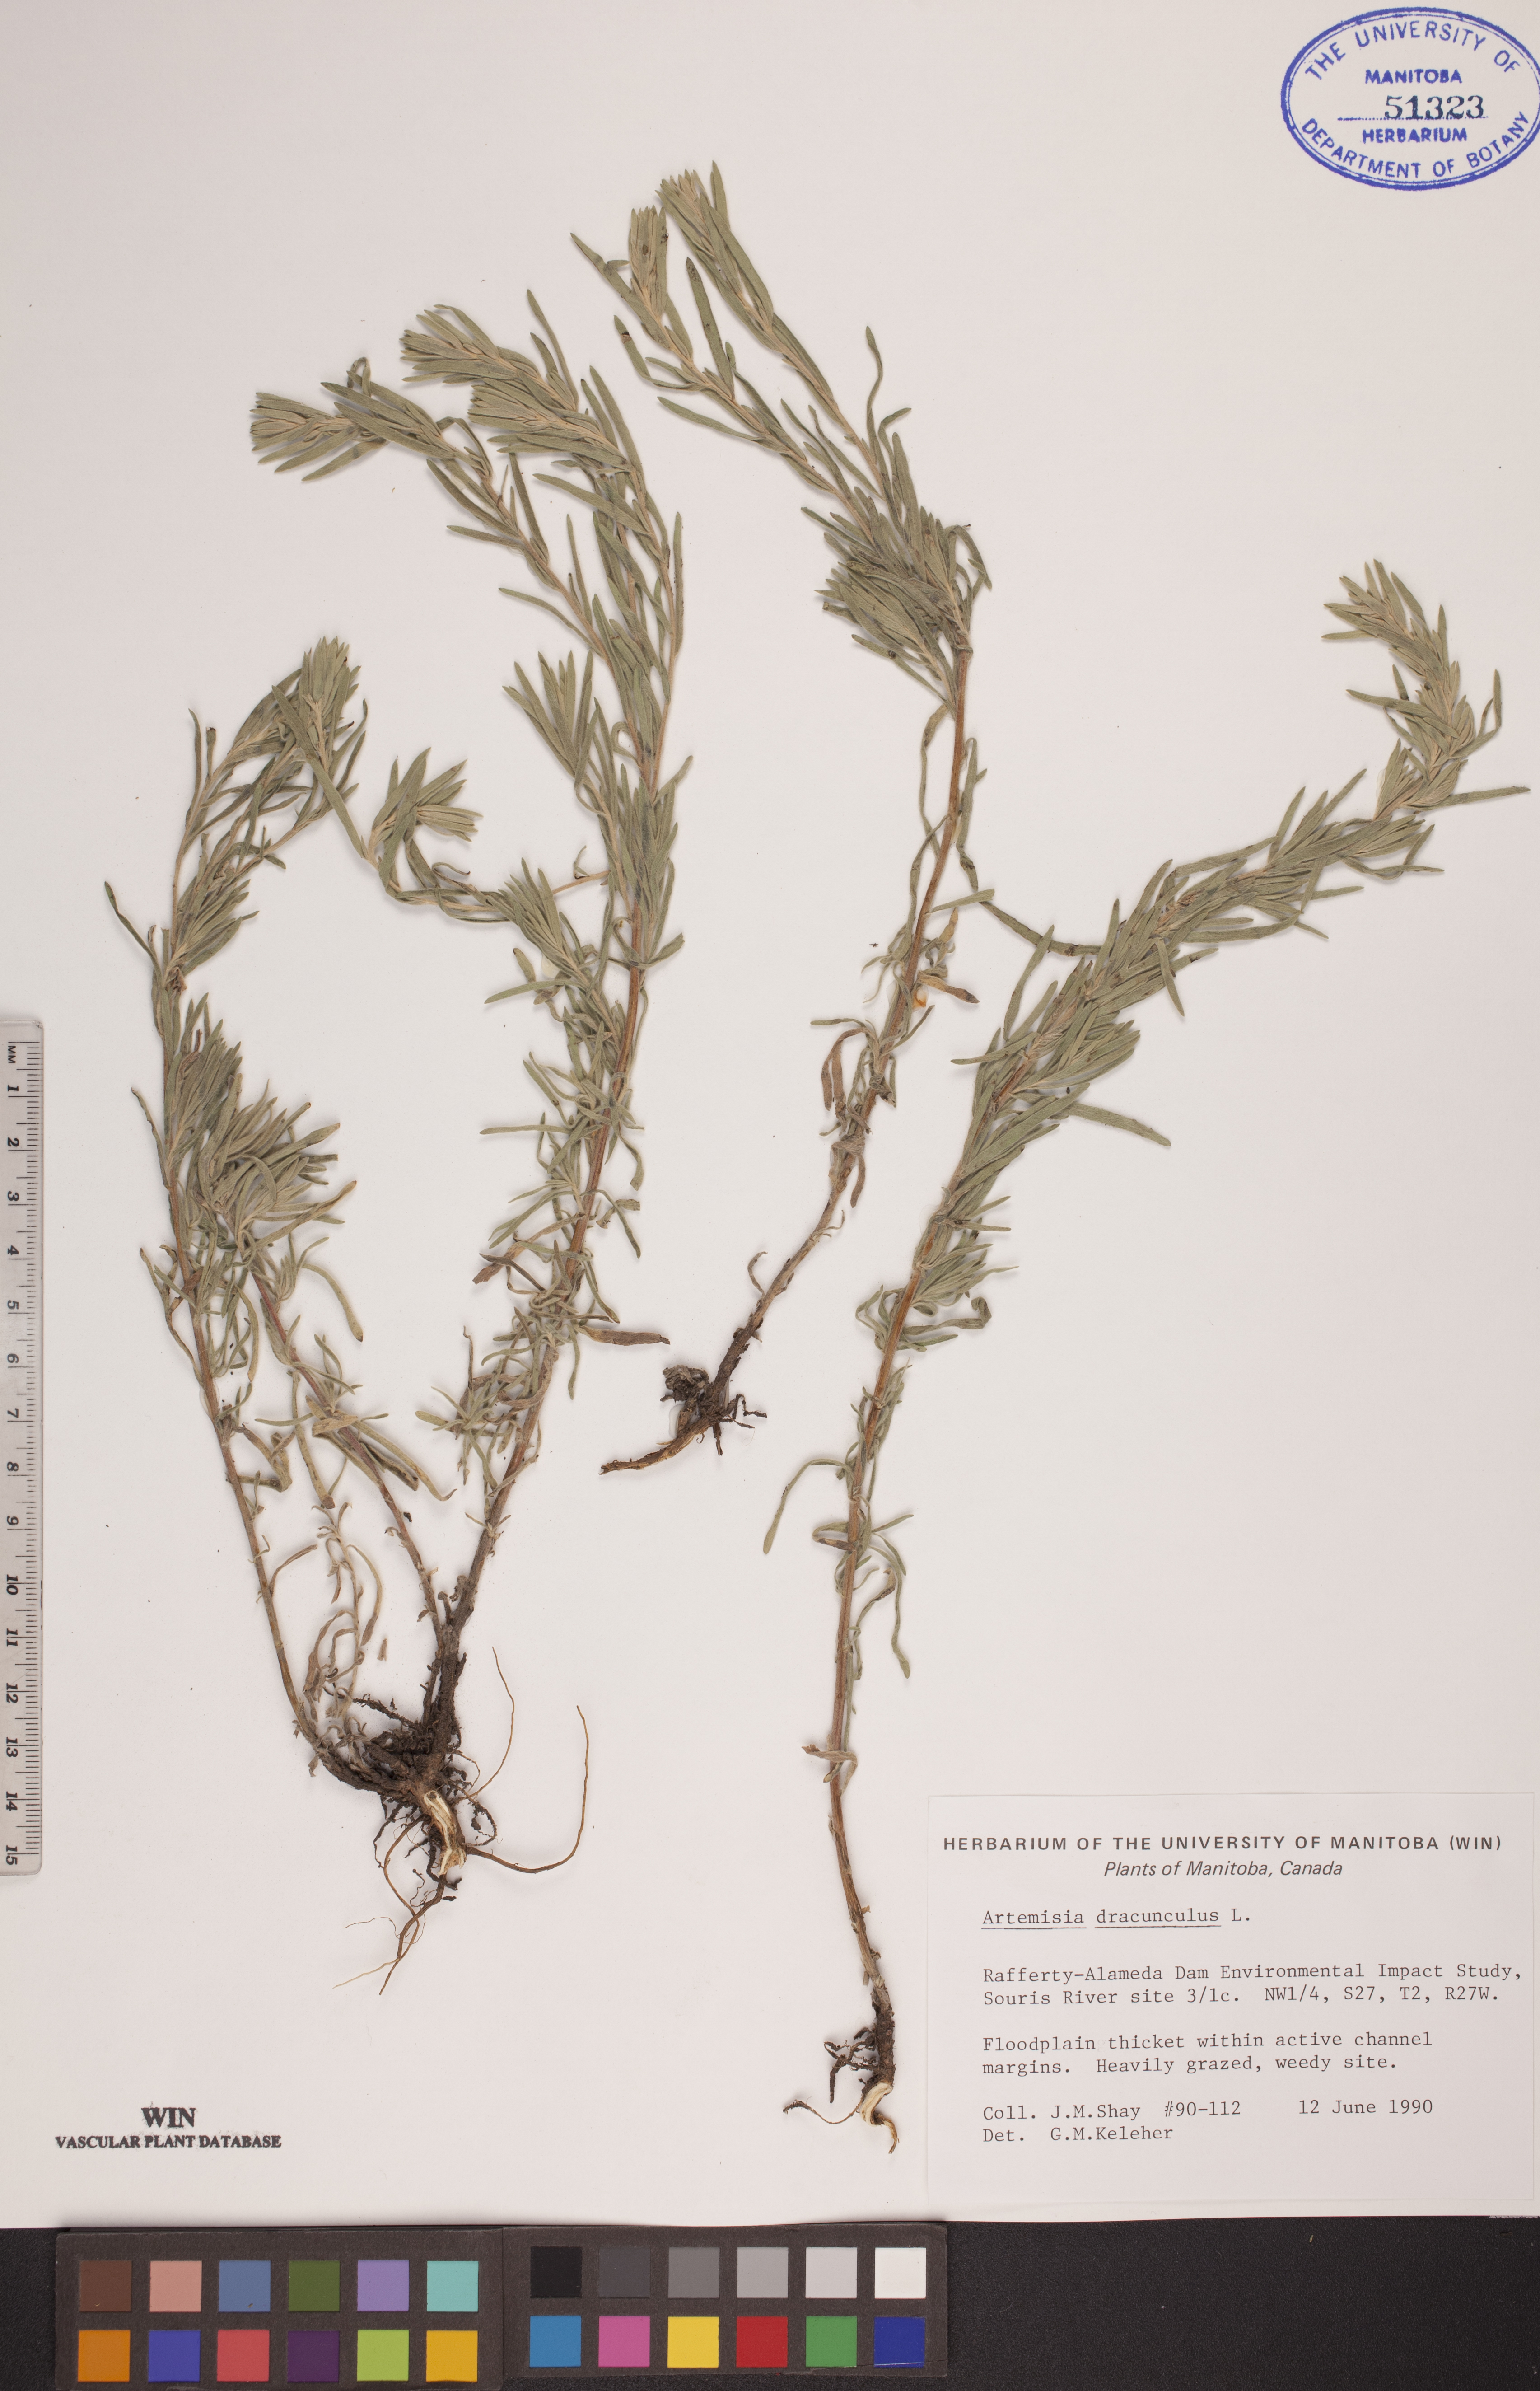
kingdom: Plantae
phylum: Tracheophyta
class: Magnoliopsida
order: Asterales
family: Asteraceae
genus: Artemisia
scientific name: Artemisia dracunculus
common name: Tarragon
